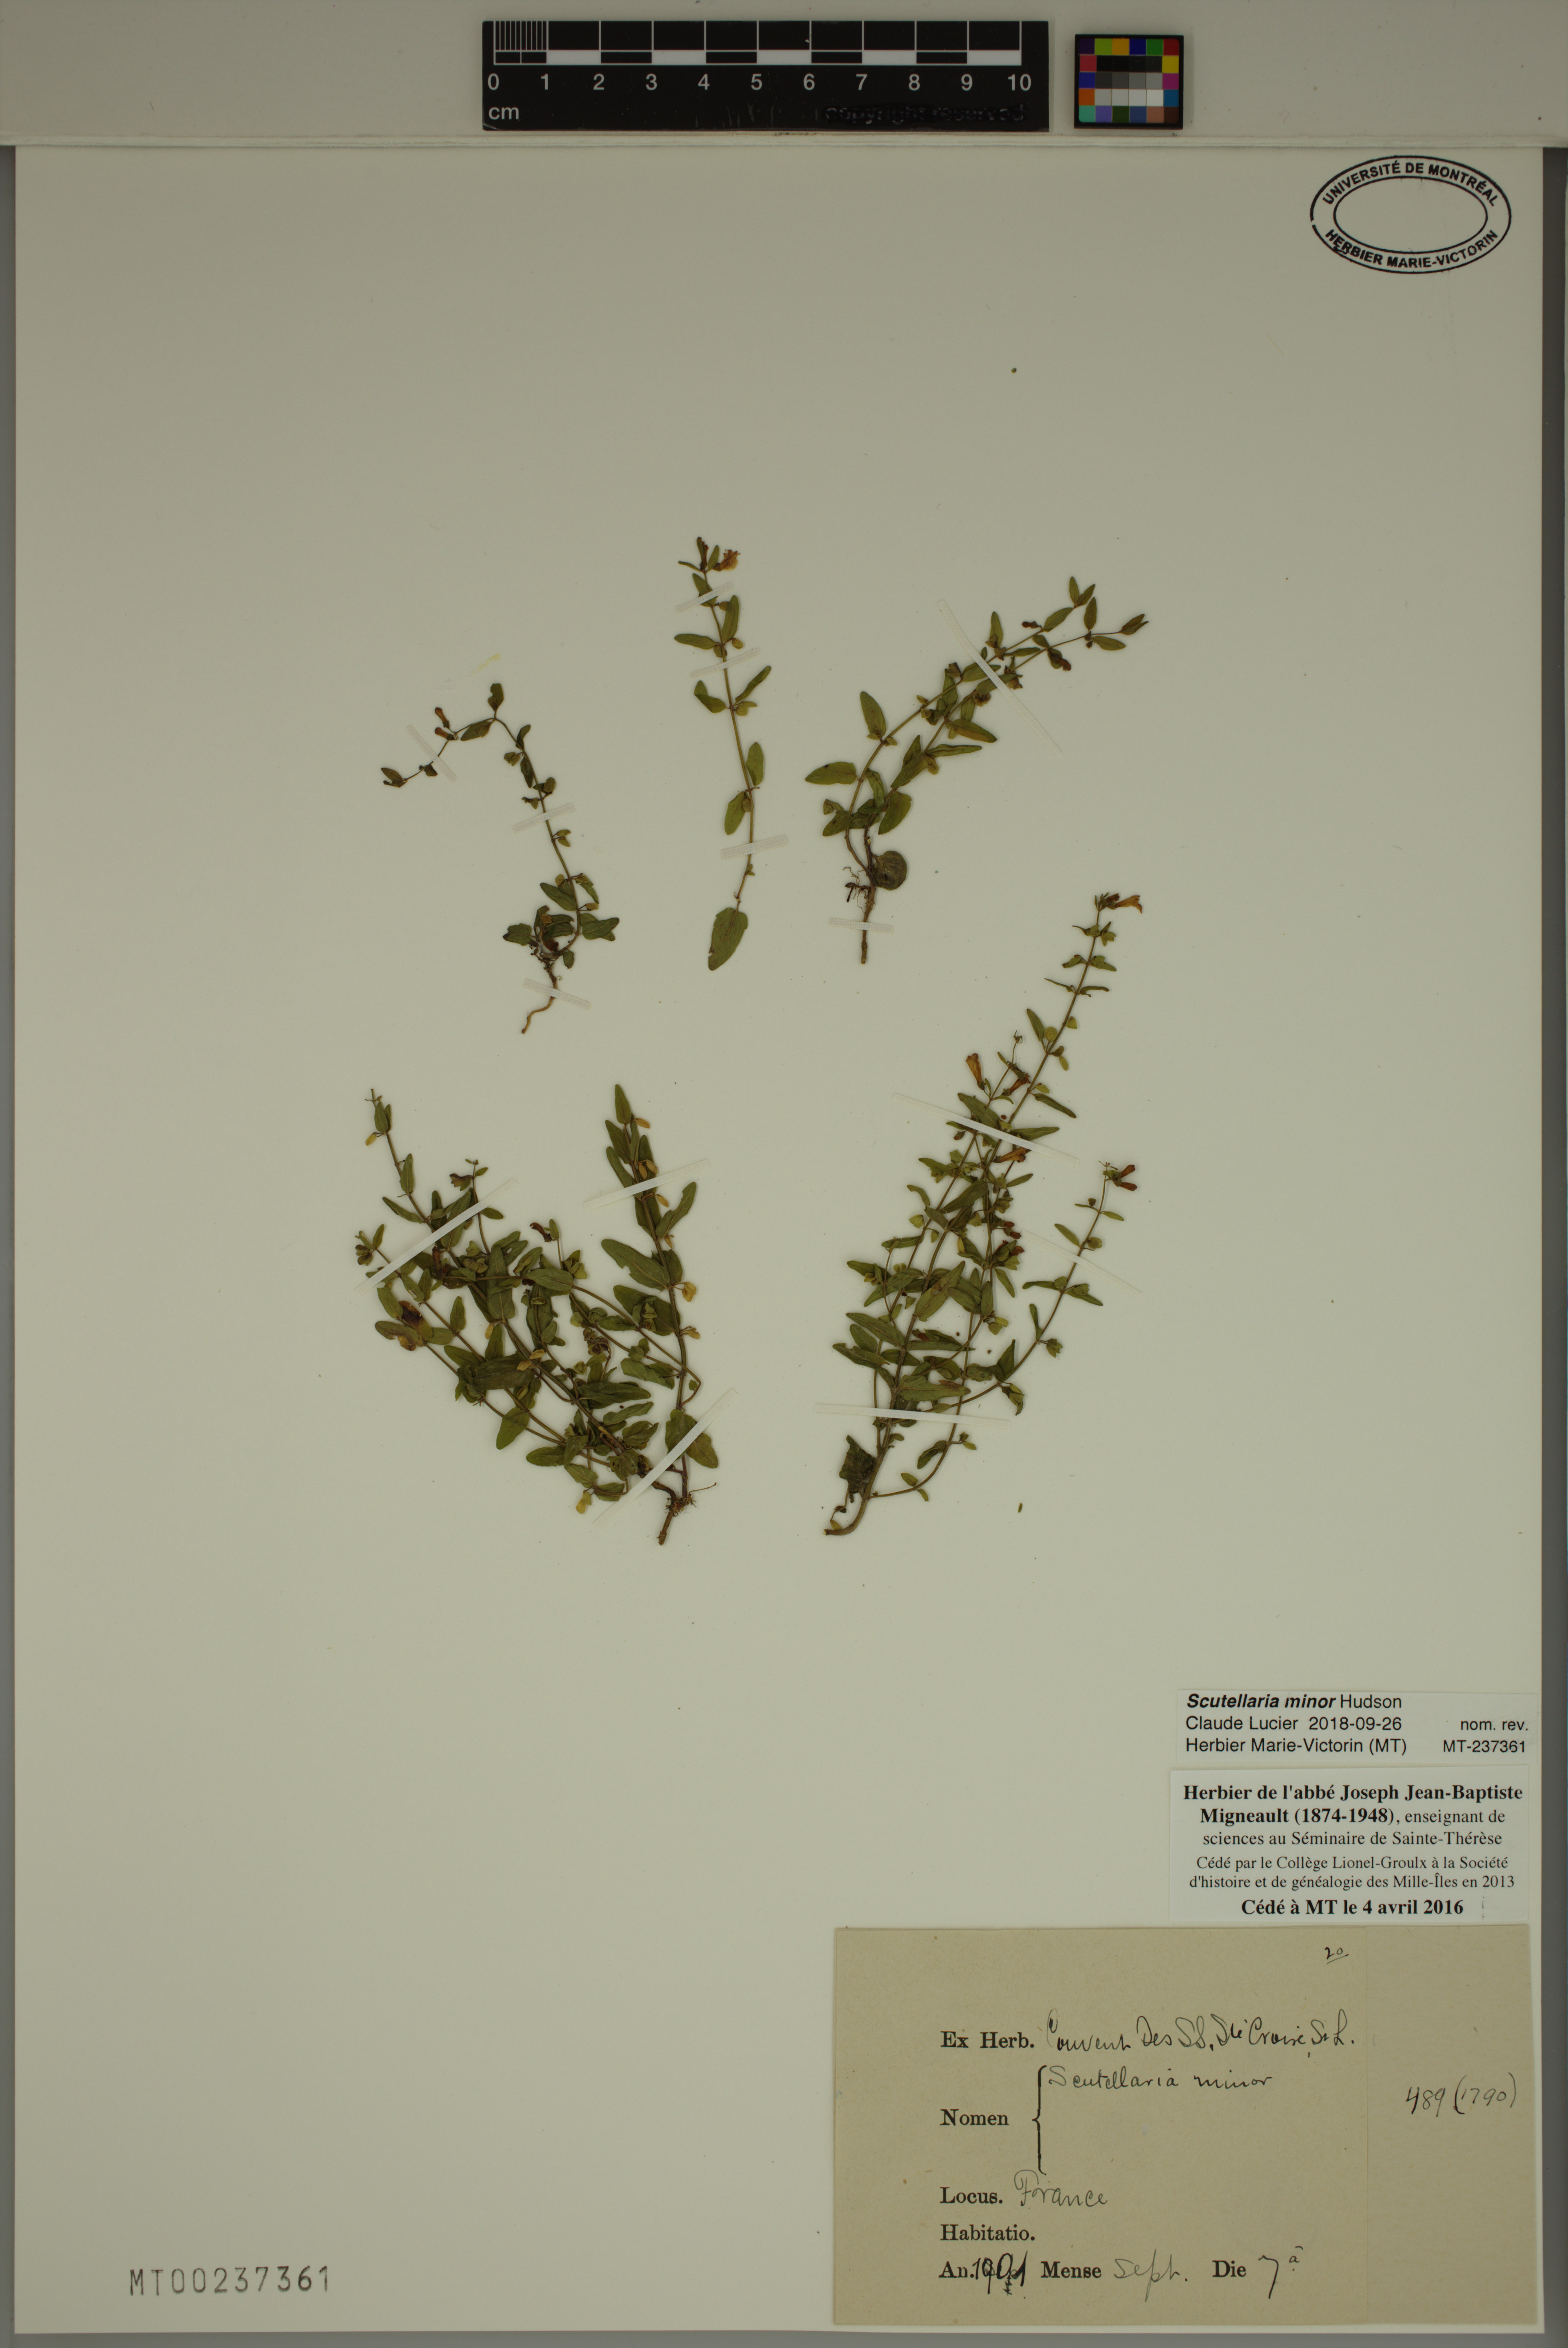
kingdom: Plantae
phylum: Tracheophyta
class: Magnoliopsida
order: Lamiales
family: Lamiaceae
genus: Scutellaria
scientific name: Scutellaria minor
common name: Lesser skullcap
